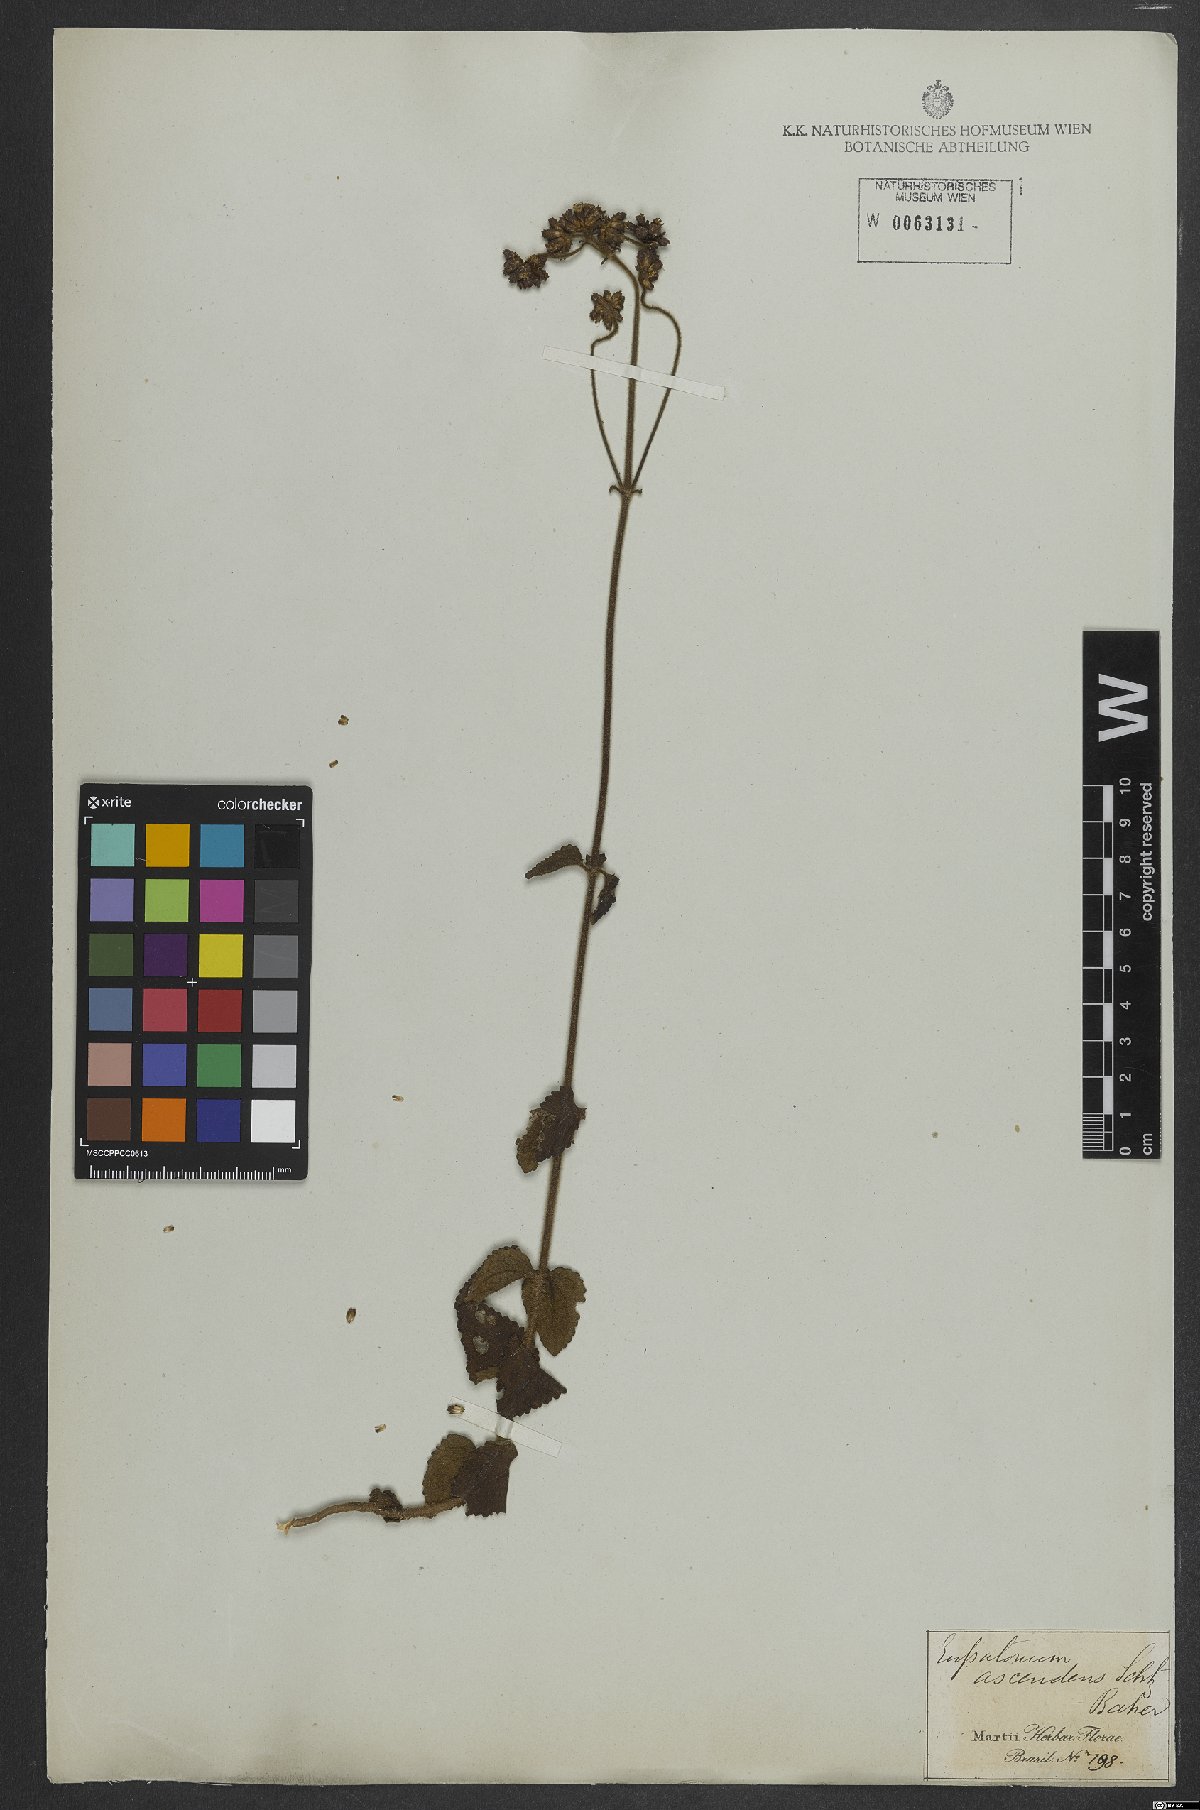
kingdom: Plantae
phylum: Tracheophyta
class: Magnoliopsida
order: Asterales
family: Asteraceae
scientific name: Asteraceae
